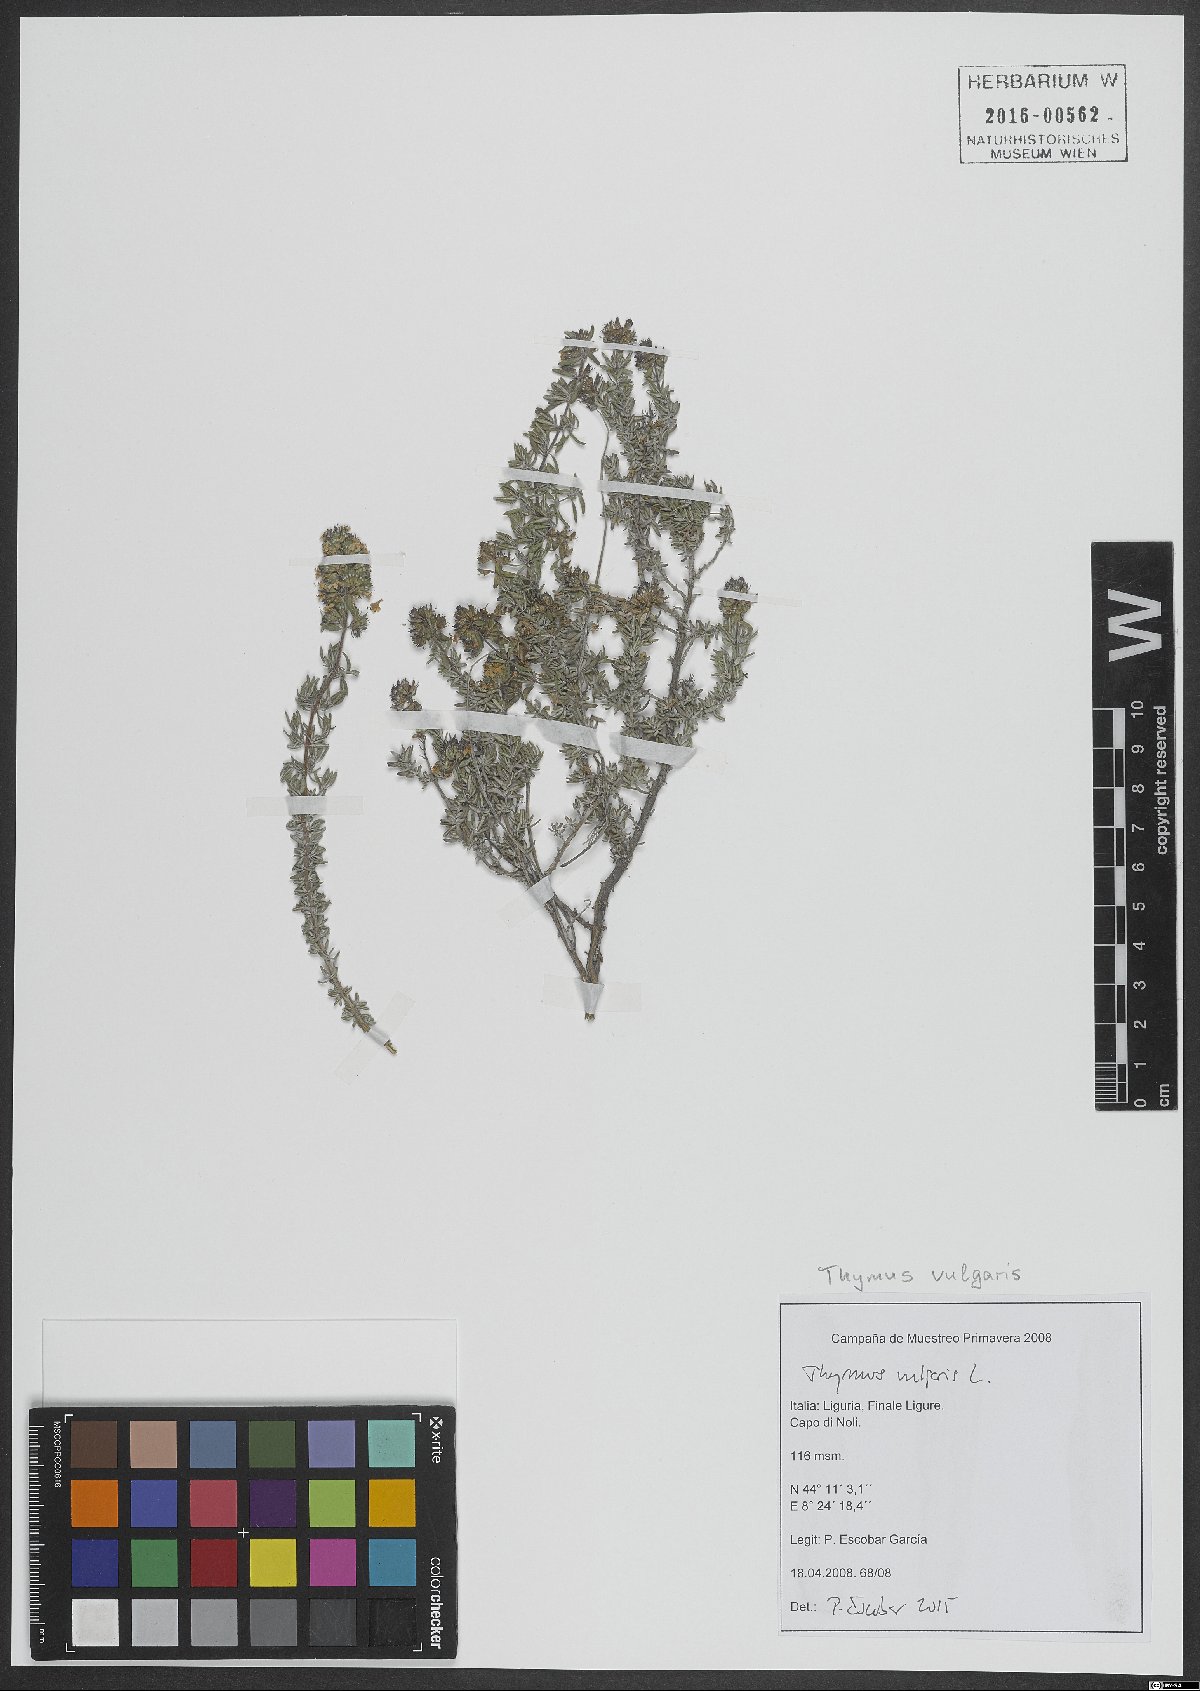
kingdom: Plantae
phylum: Tracheophyta
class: Magnoliopsida
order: Lamiales
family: Lamiaceae
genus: Thymus
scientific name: Thymus vulgaris
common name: Garden thyme
